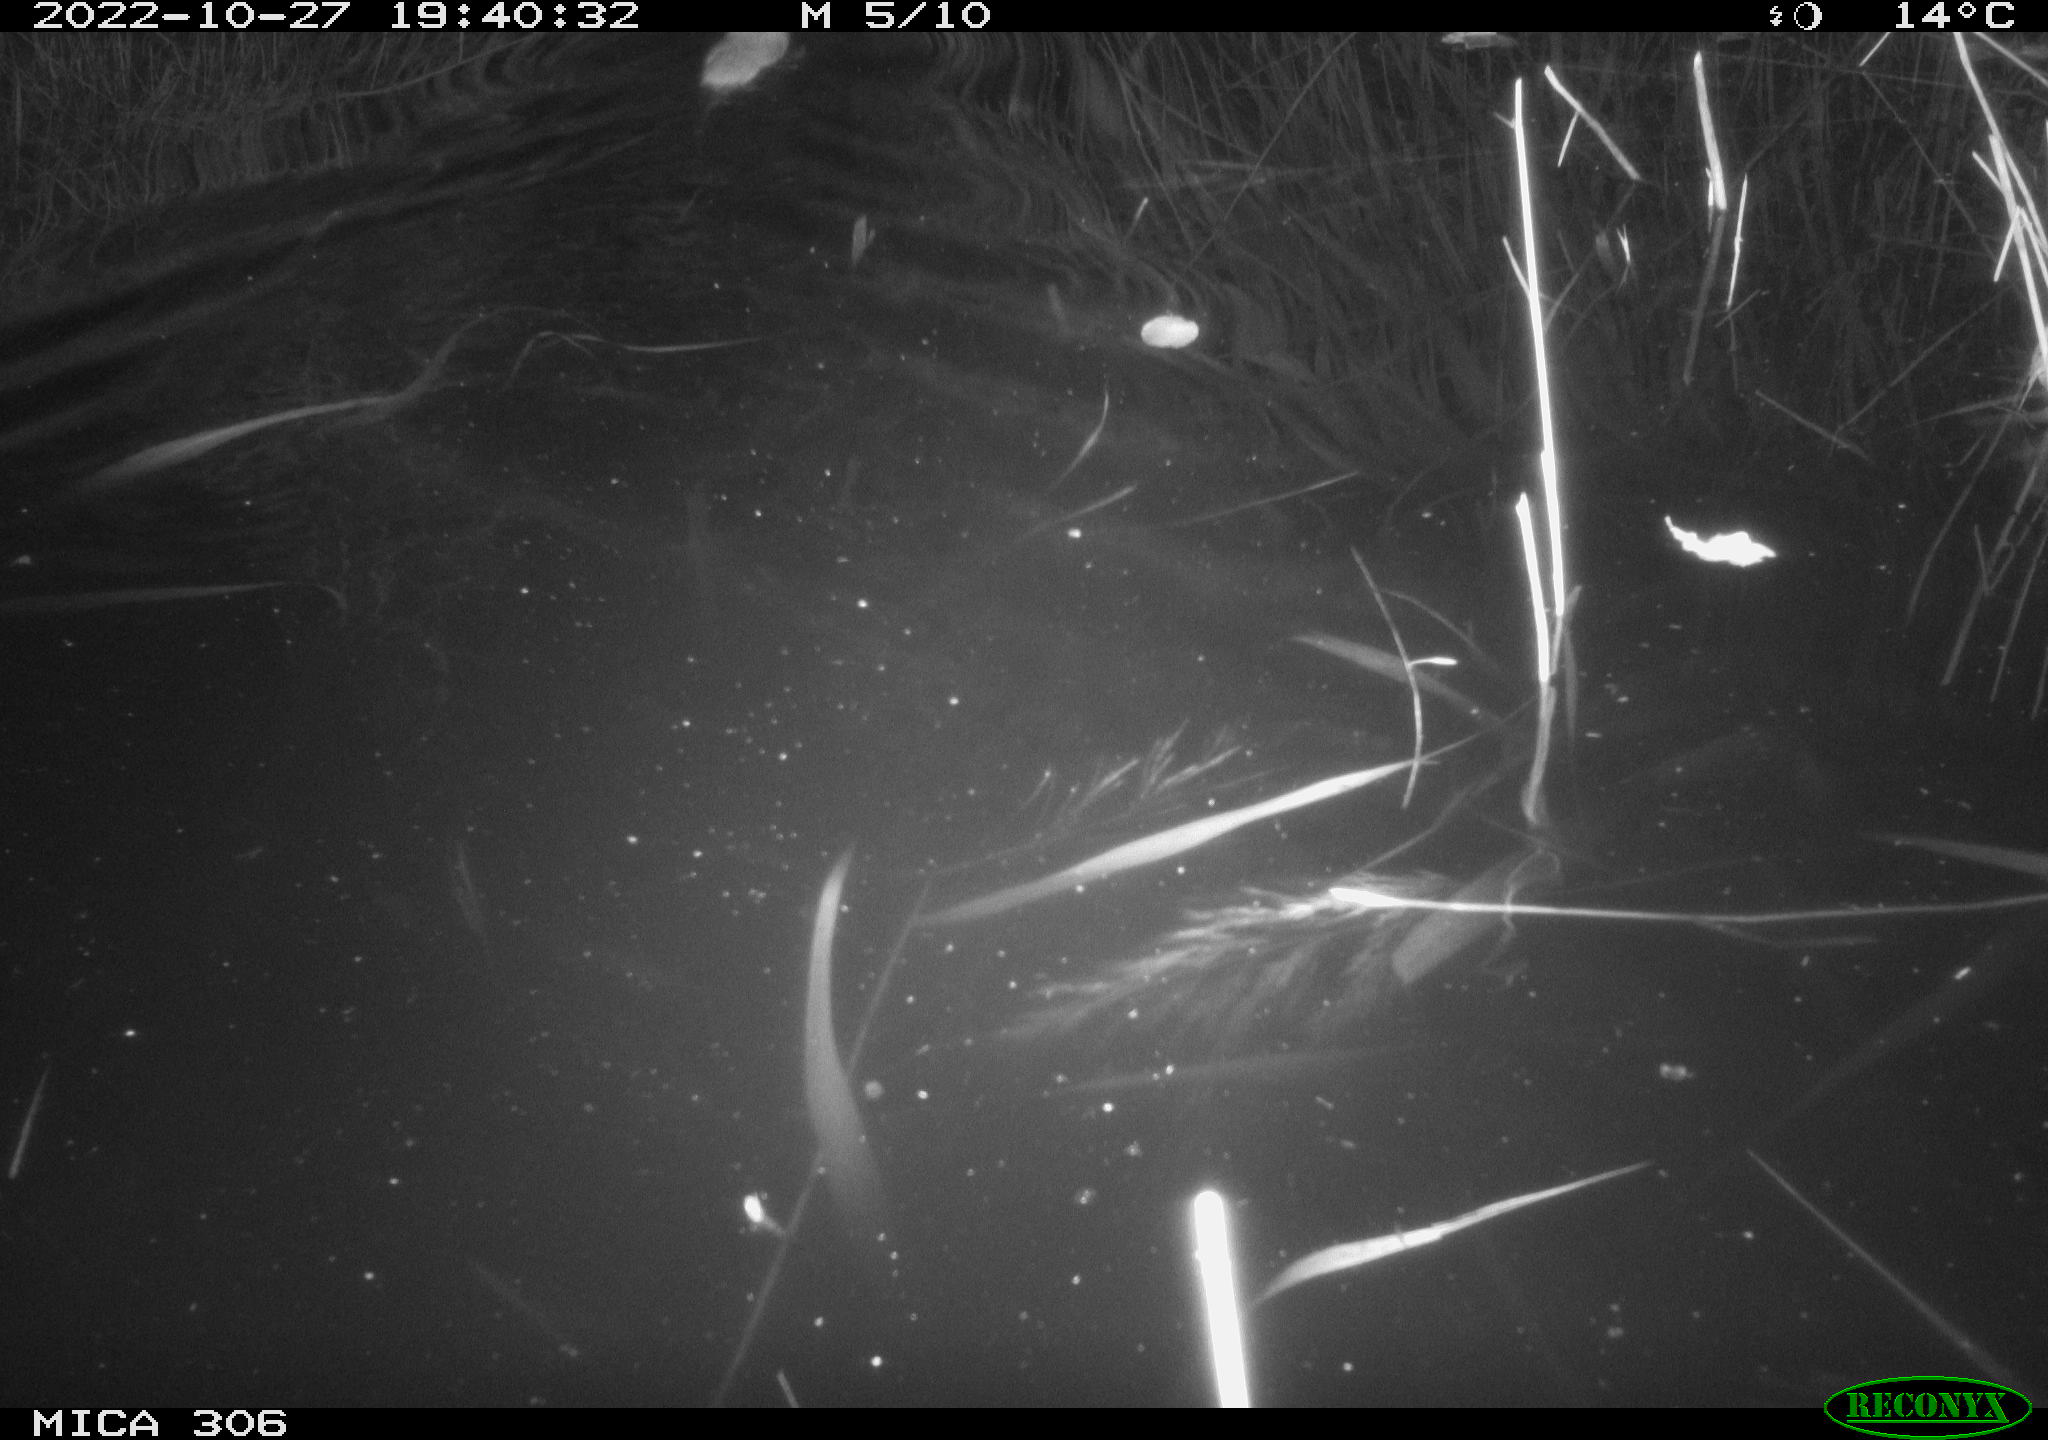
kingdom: Animalia
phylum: Chordata
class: Mammalia
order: Rodentia
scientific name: Rodentia
